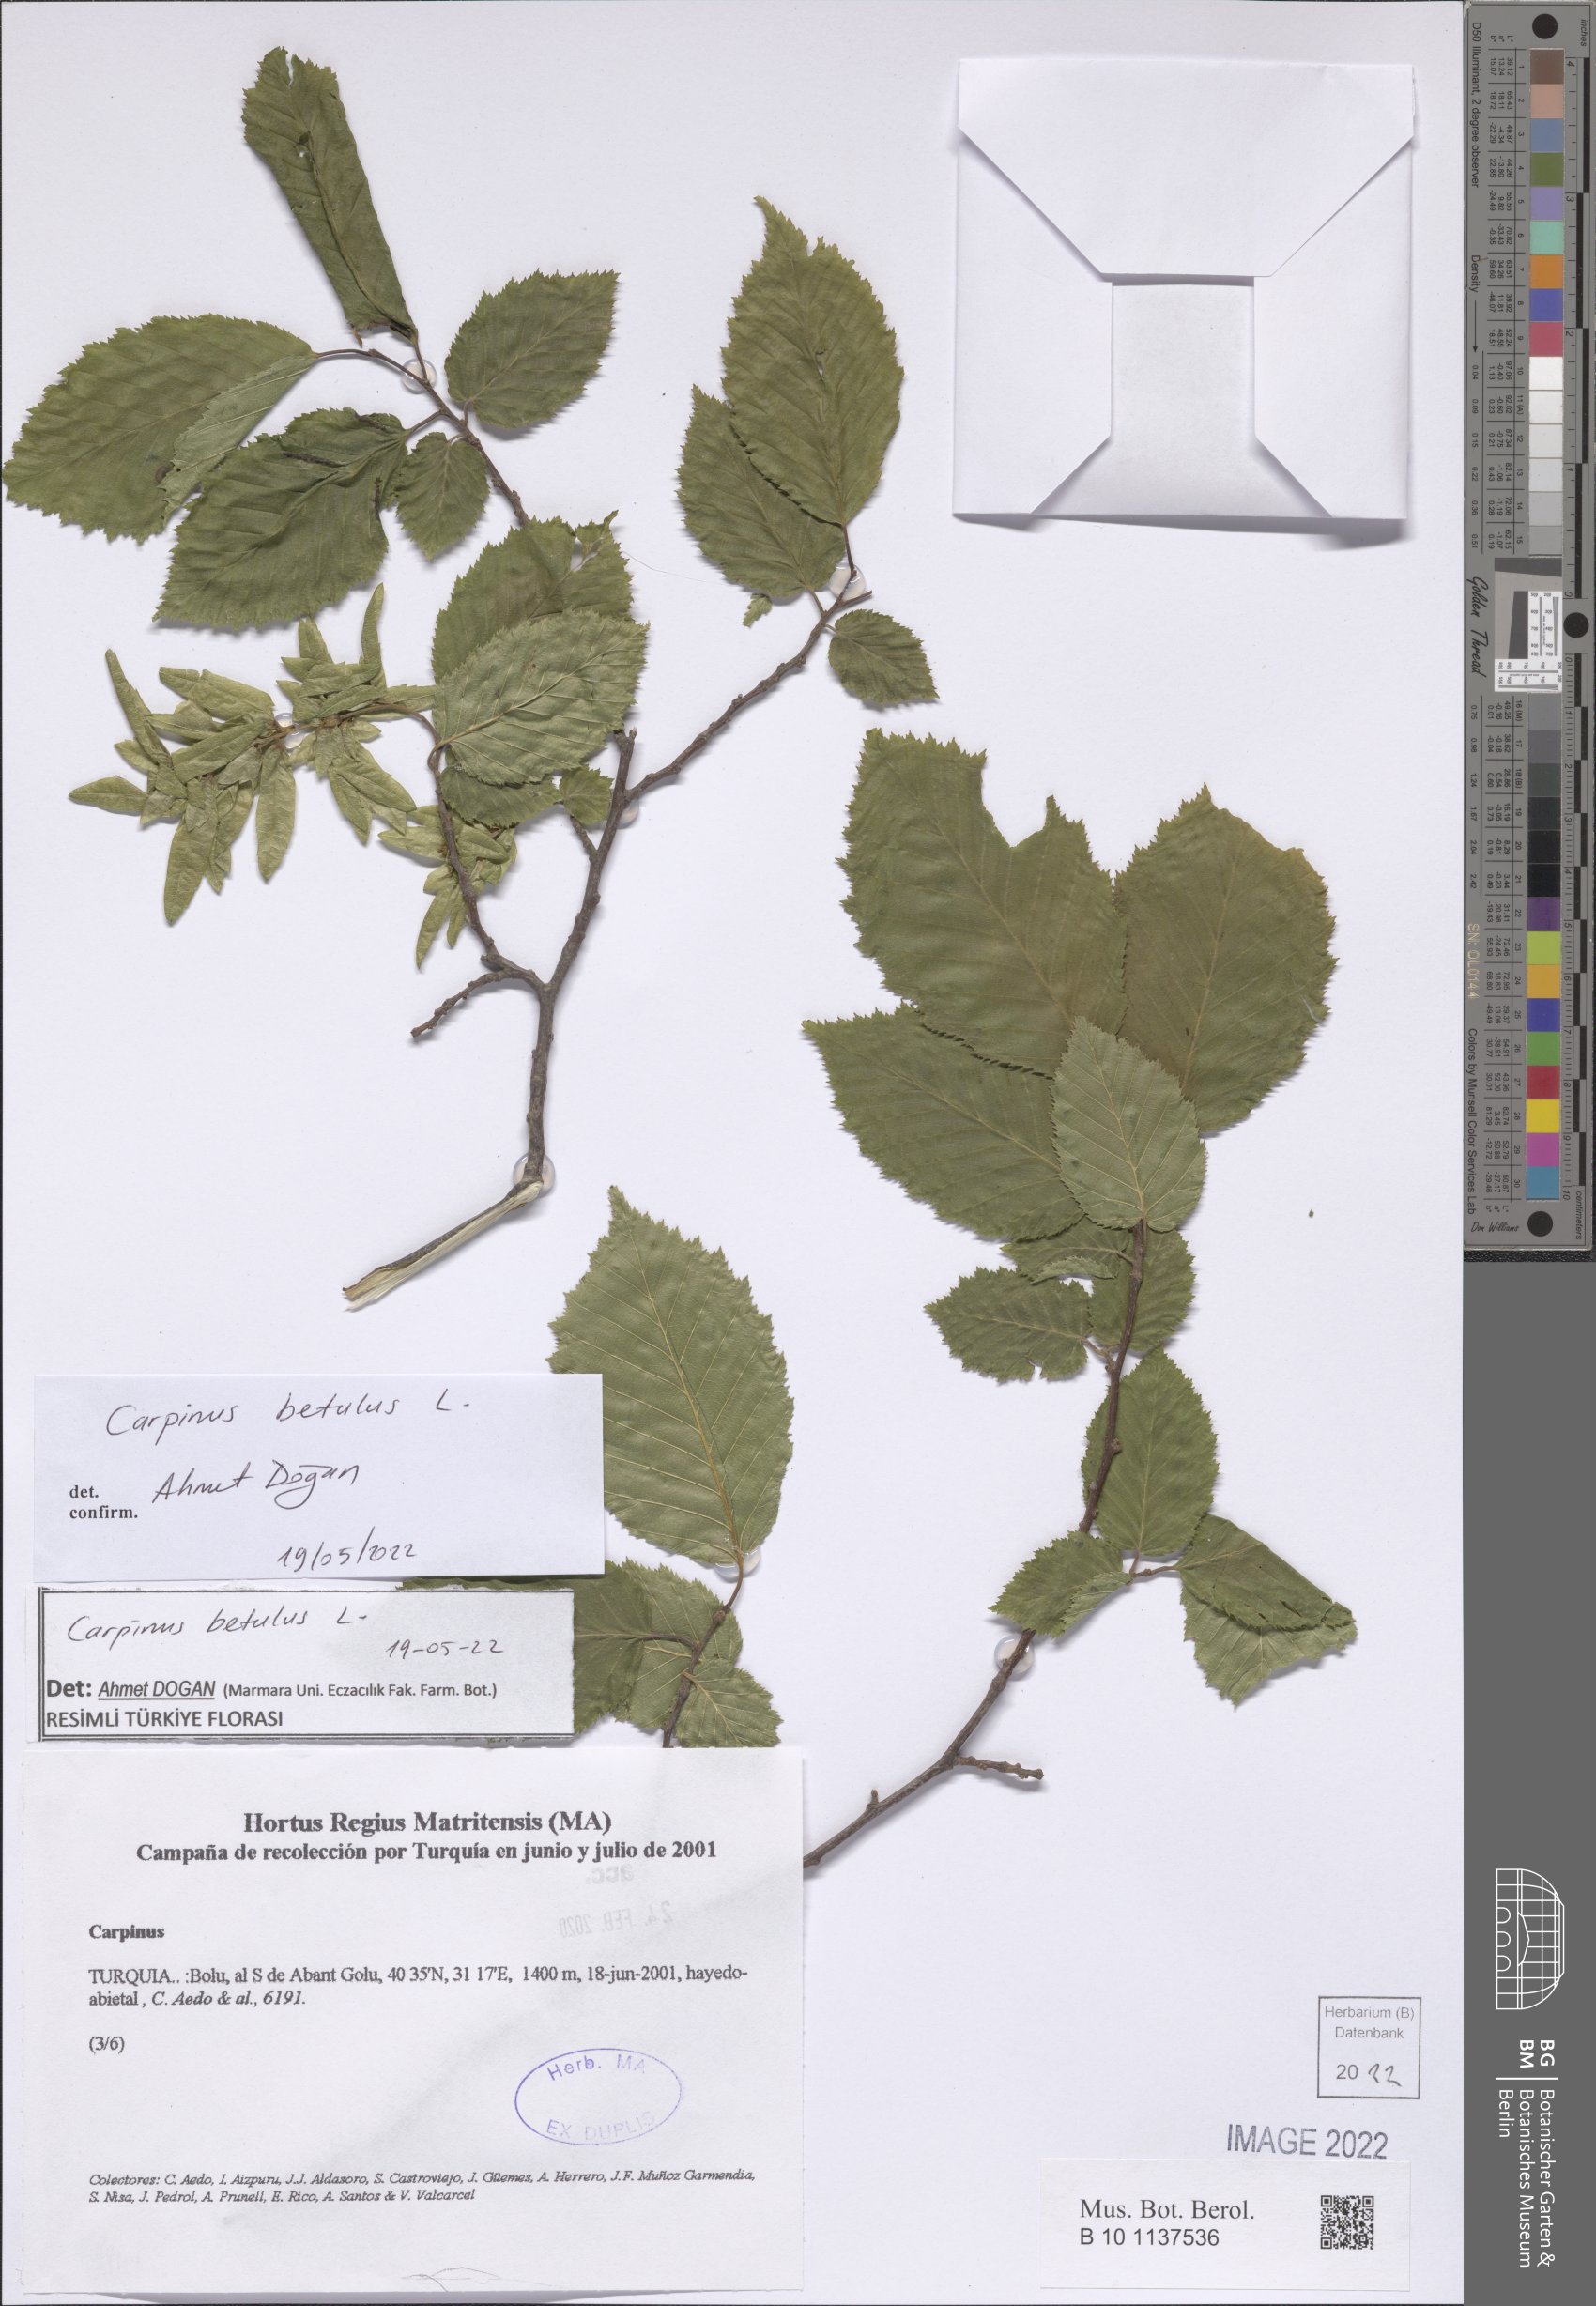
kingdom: Plantae
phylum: Tracheophyta
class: Magnoliopsida
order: Fagales
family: Betulaceae
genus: Carpinus
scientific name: Carpinus betulus
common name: Hornbeam
